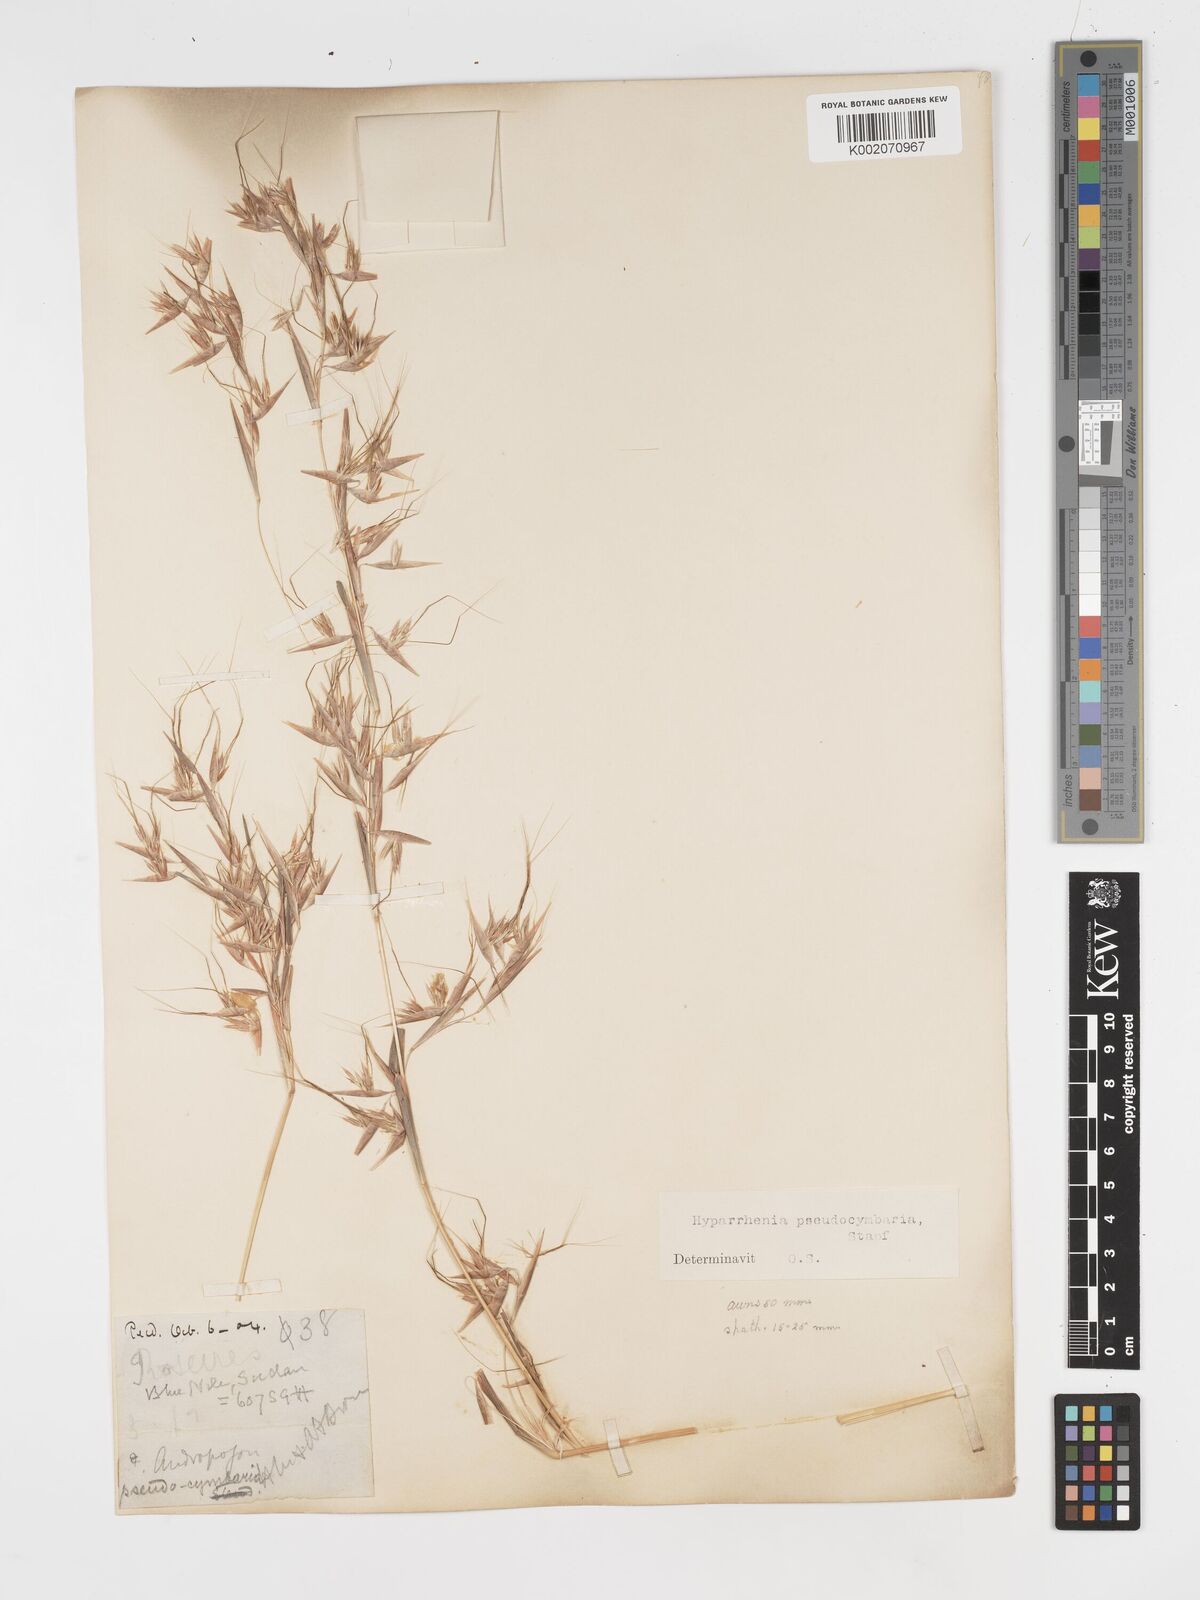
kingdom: Plantae
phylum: Tracheophyta
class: Liliopsida
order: Poales
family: Poaceae
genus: Hyparrhenia
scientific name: Hyparrhenia anthistirioides
